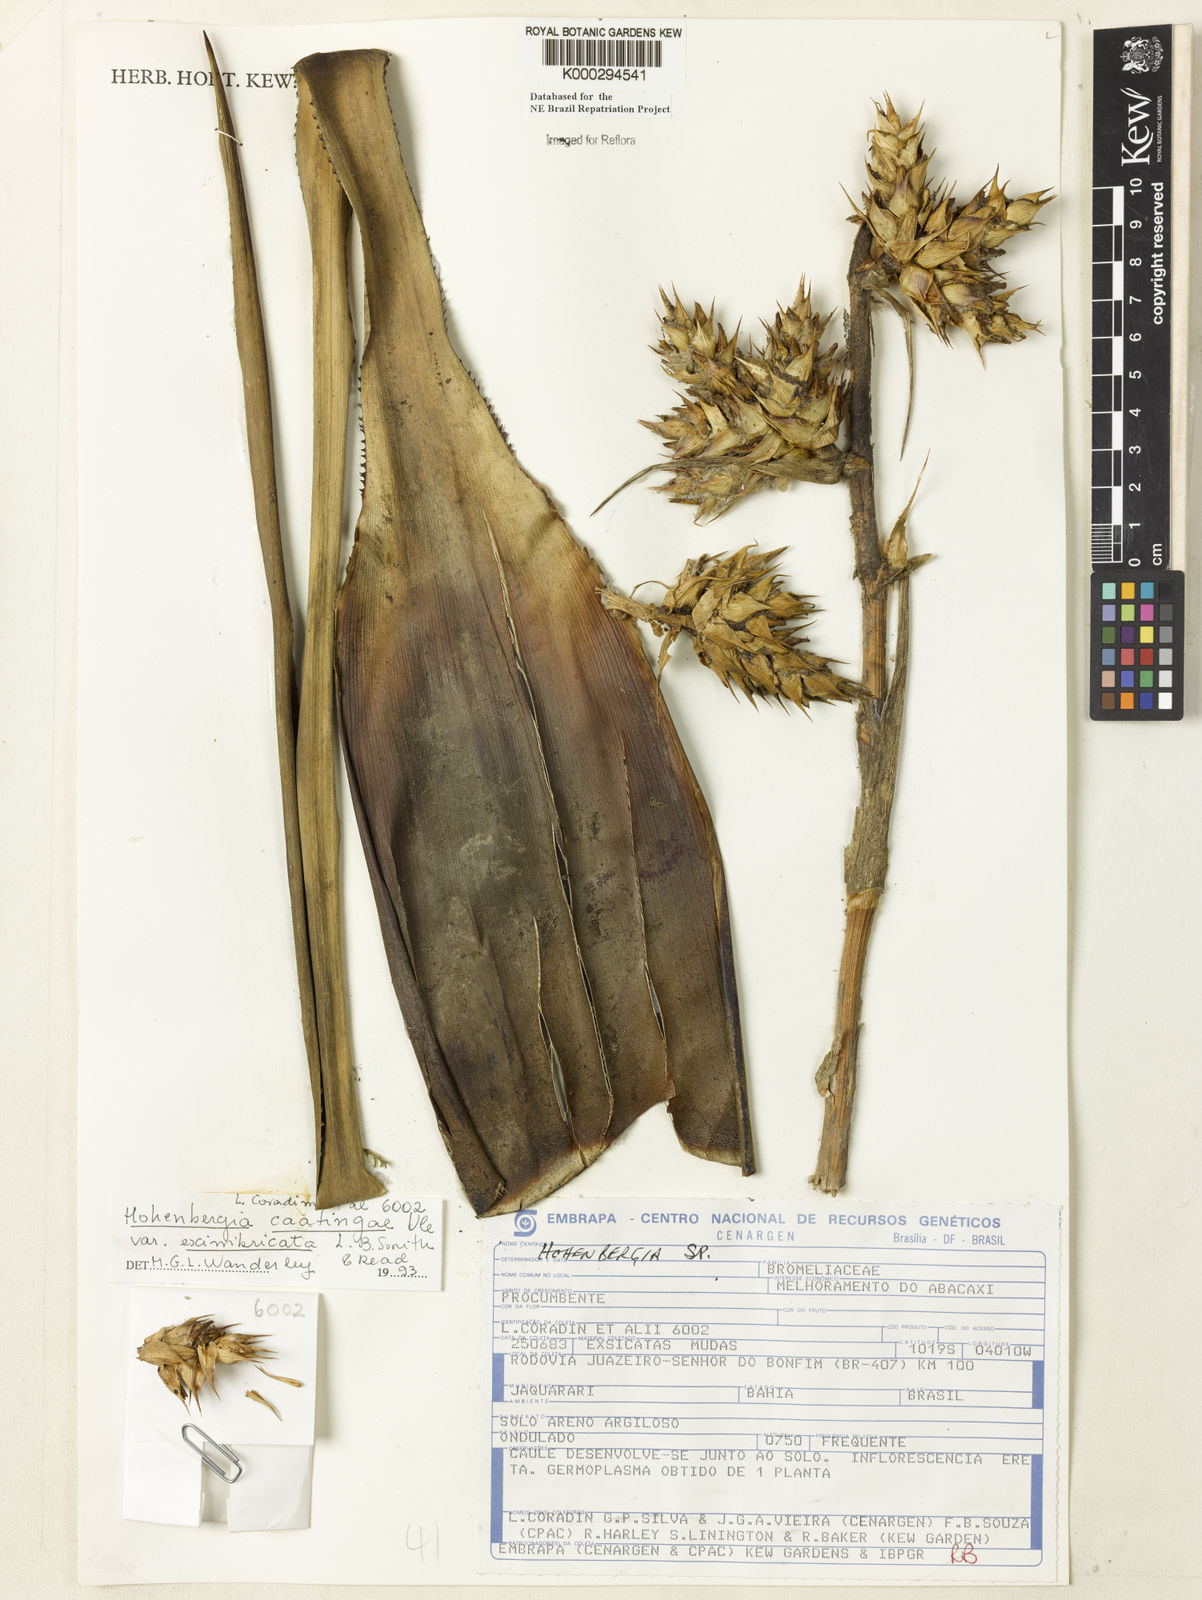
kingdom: Plantae
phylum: Tracheophyta
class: Liliopsida
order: Poales
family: Bromeliaceae
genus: Hohenbergia
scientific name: Hohenbergia catingae
